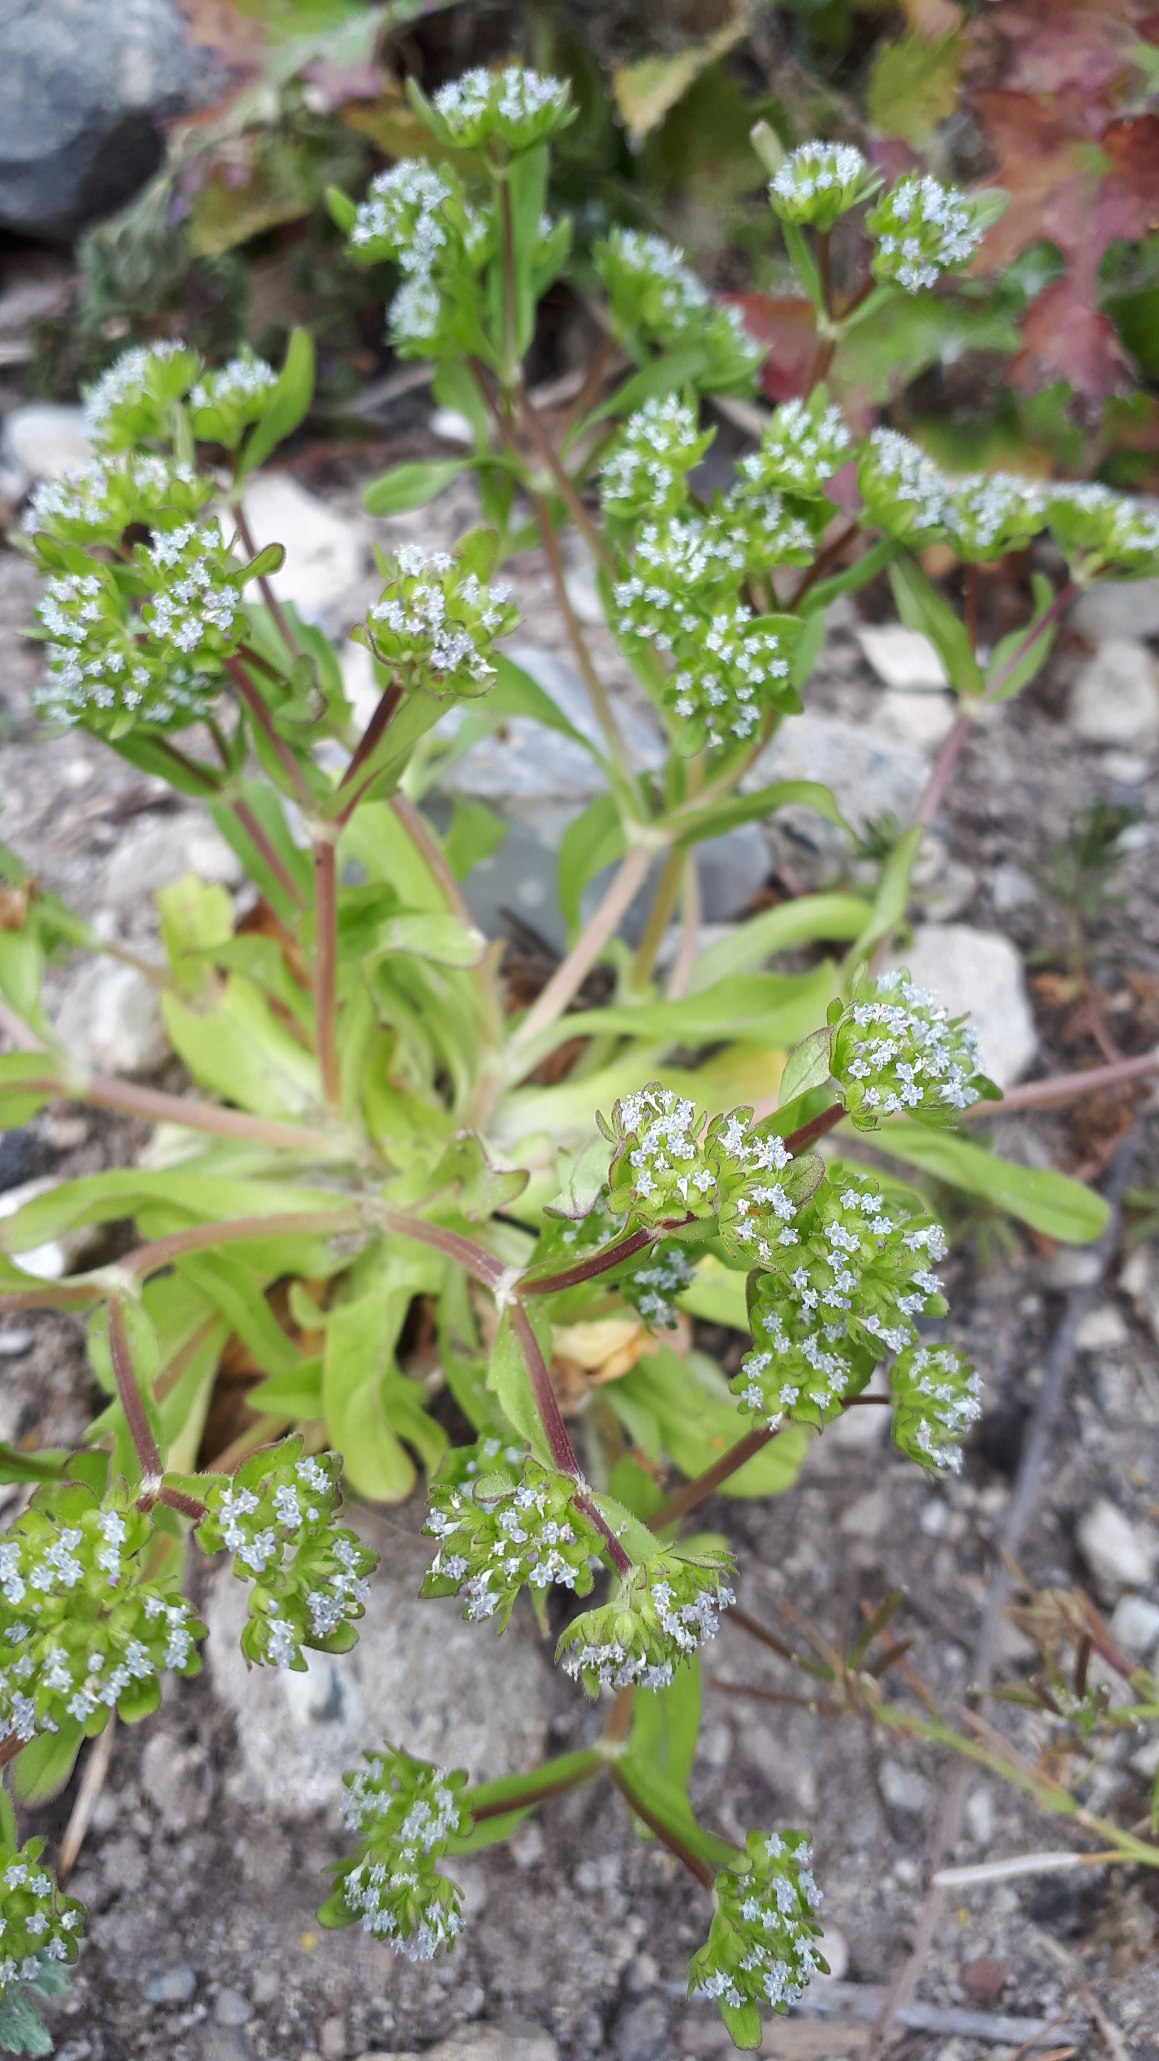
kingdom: Plantae
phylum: Tracheophyta
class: Magnoliopsida
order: Dipsacales
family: Caprifoliaceae
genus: Valerianella
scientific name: Valerianella locusta
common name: Tandfri vårsalat
